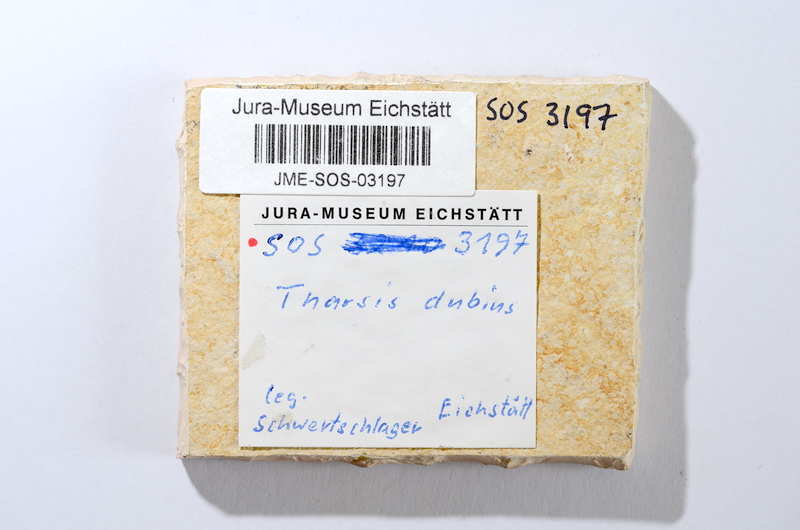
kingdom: Animalia
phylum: Chordata
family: Ascalaboidae
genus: Tharsis
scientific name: Tharsis dubius
